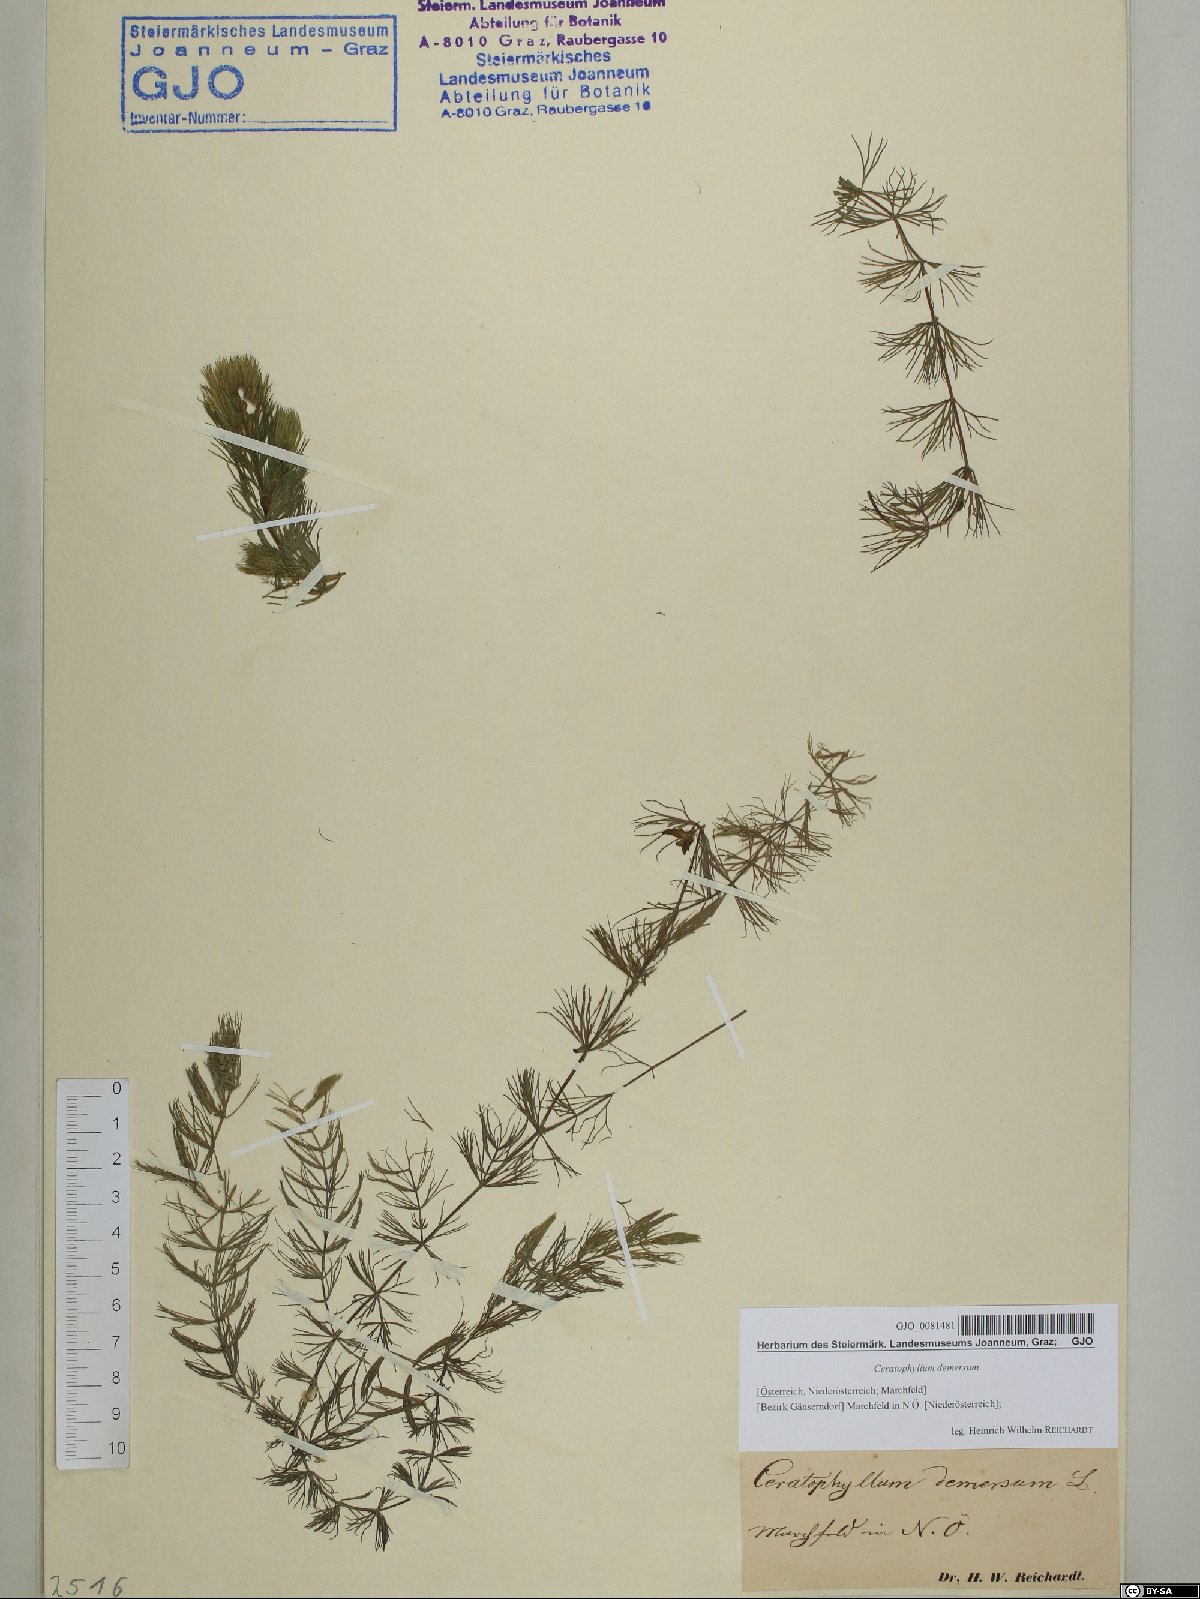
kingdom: Plantae
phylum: Tracheophyta
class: Magnoliopsida
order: Ceratophyllales
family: Ceratophyllaceae
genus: Ceratophyllum
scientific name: Ceratophyllum demersum
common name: Rigid hornwort
